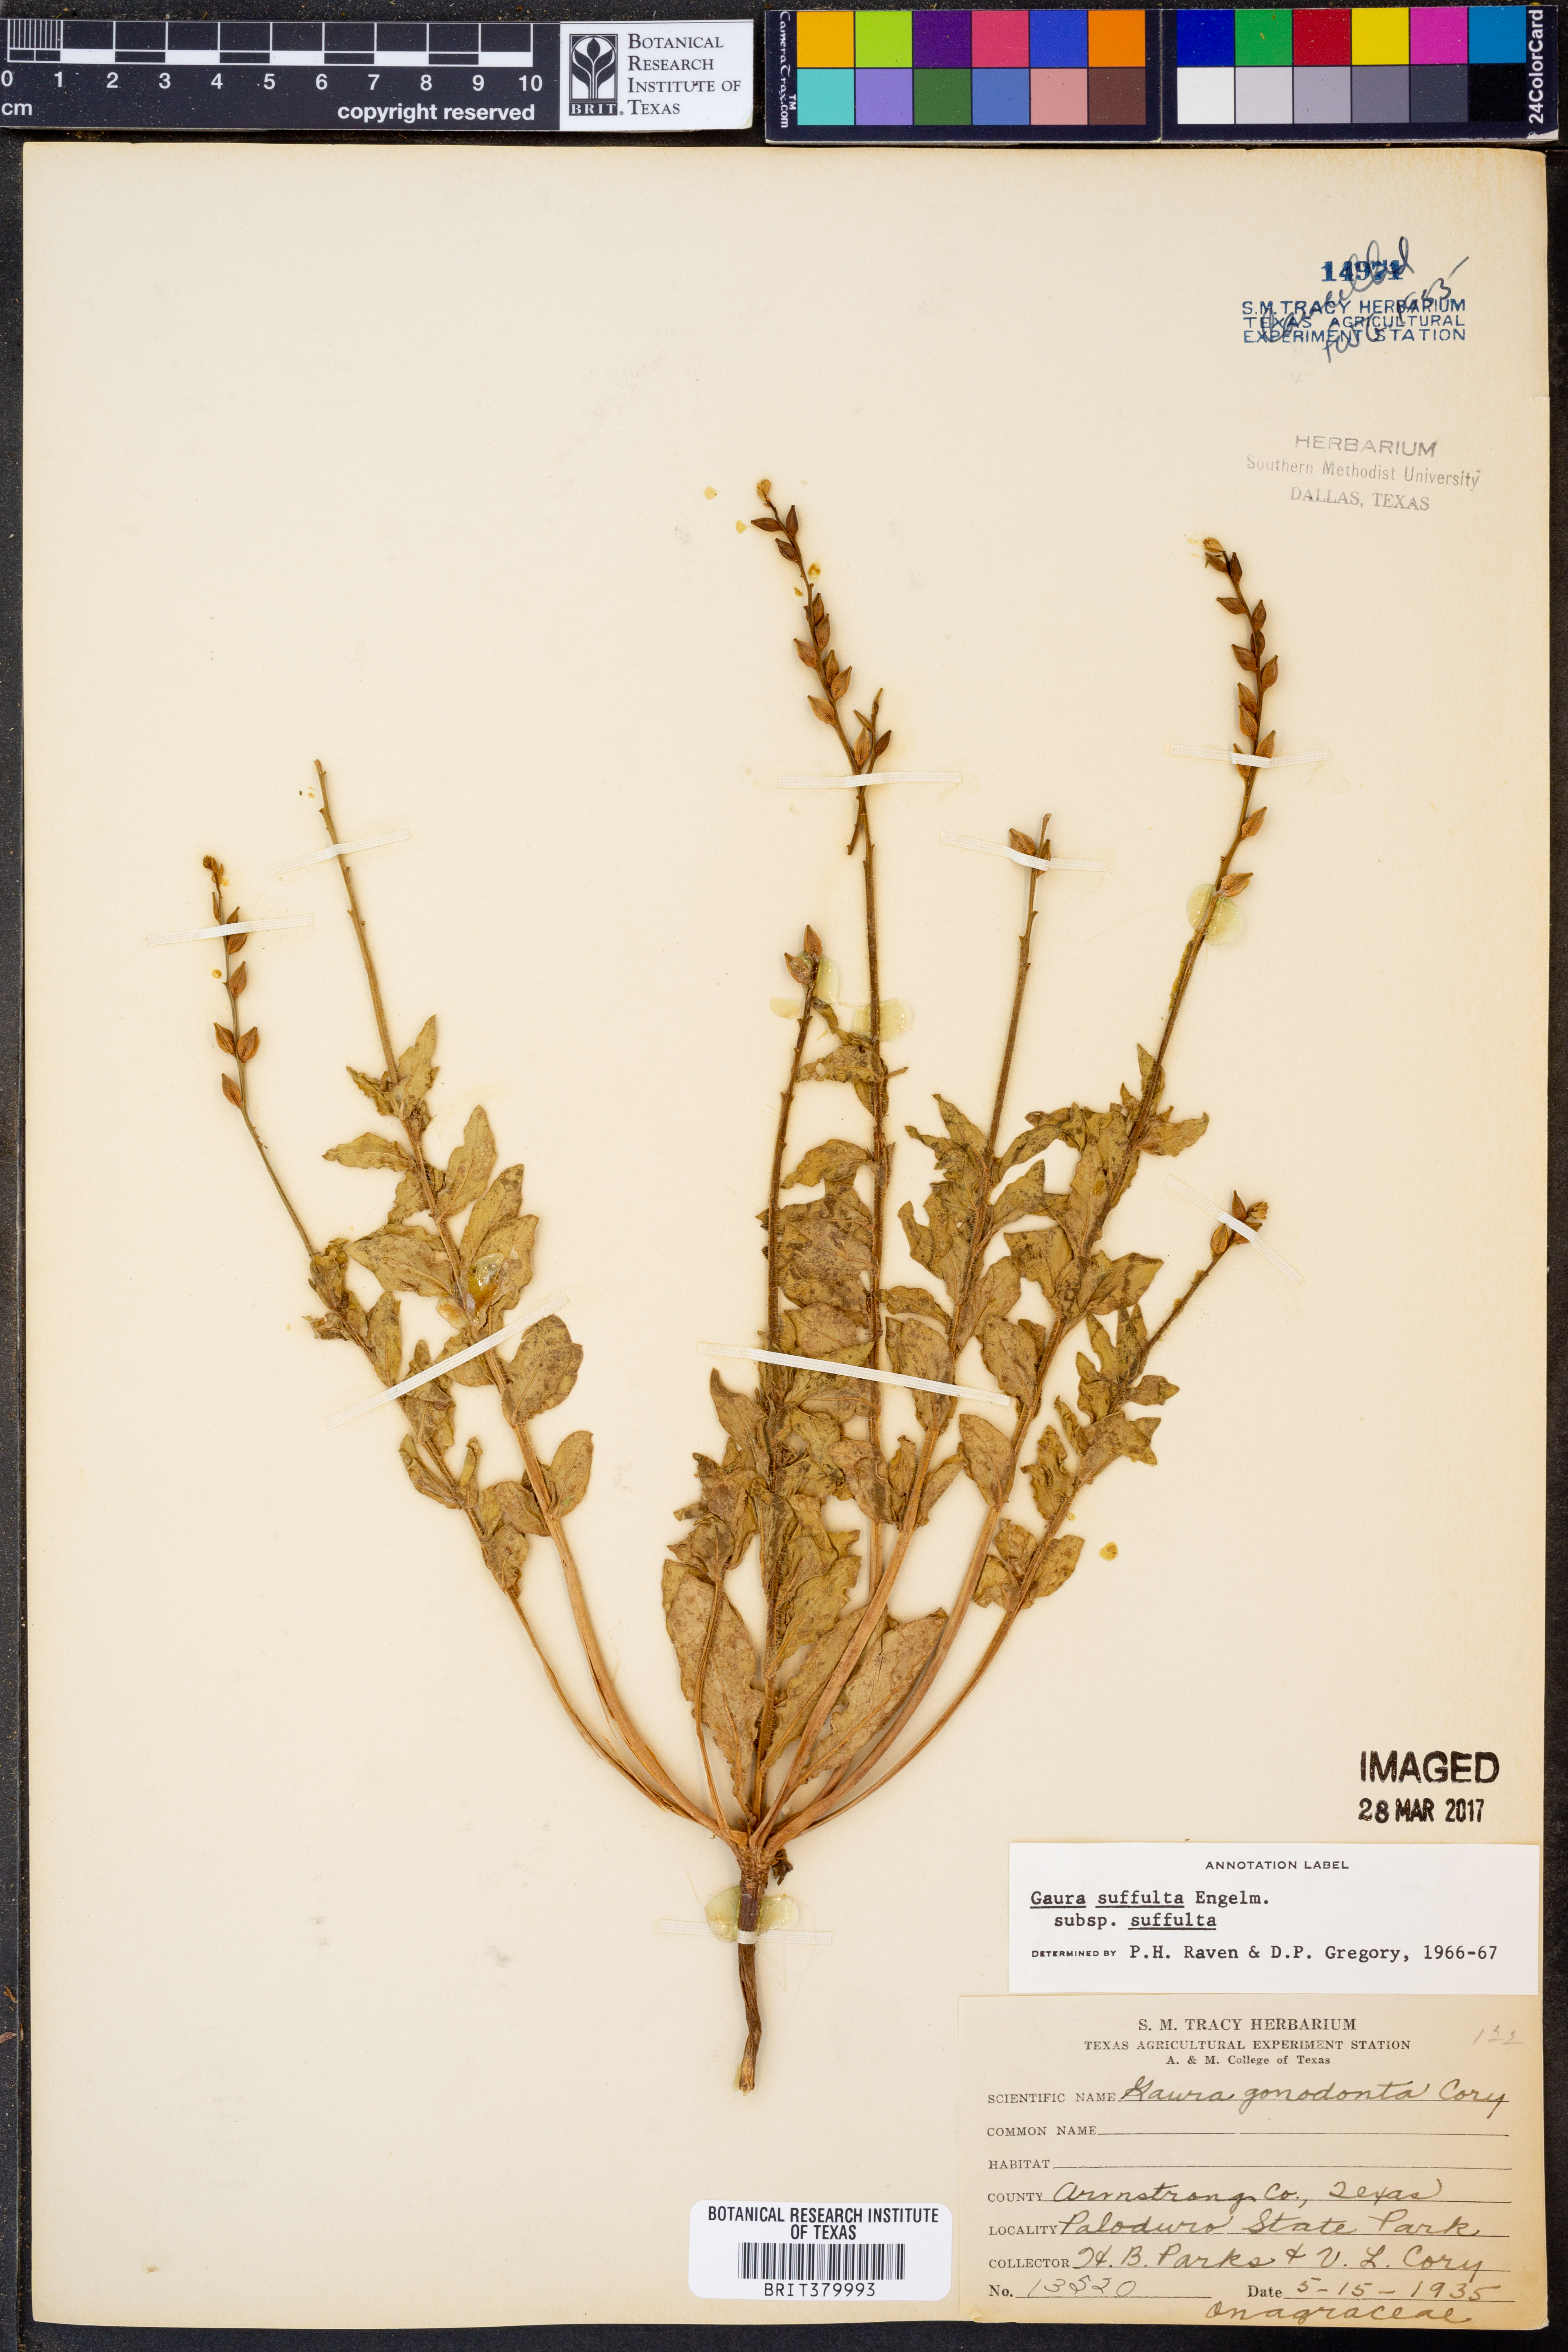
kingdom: Plantae
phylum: Tracheophyta
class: Magnoliopsida
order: Myrtales
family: Onagraceae
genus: Oenothera
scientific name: Oenothera Gaura suffulta
